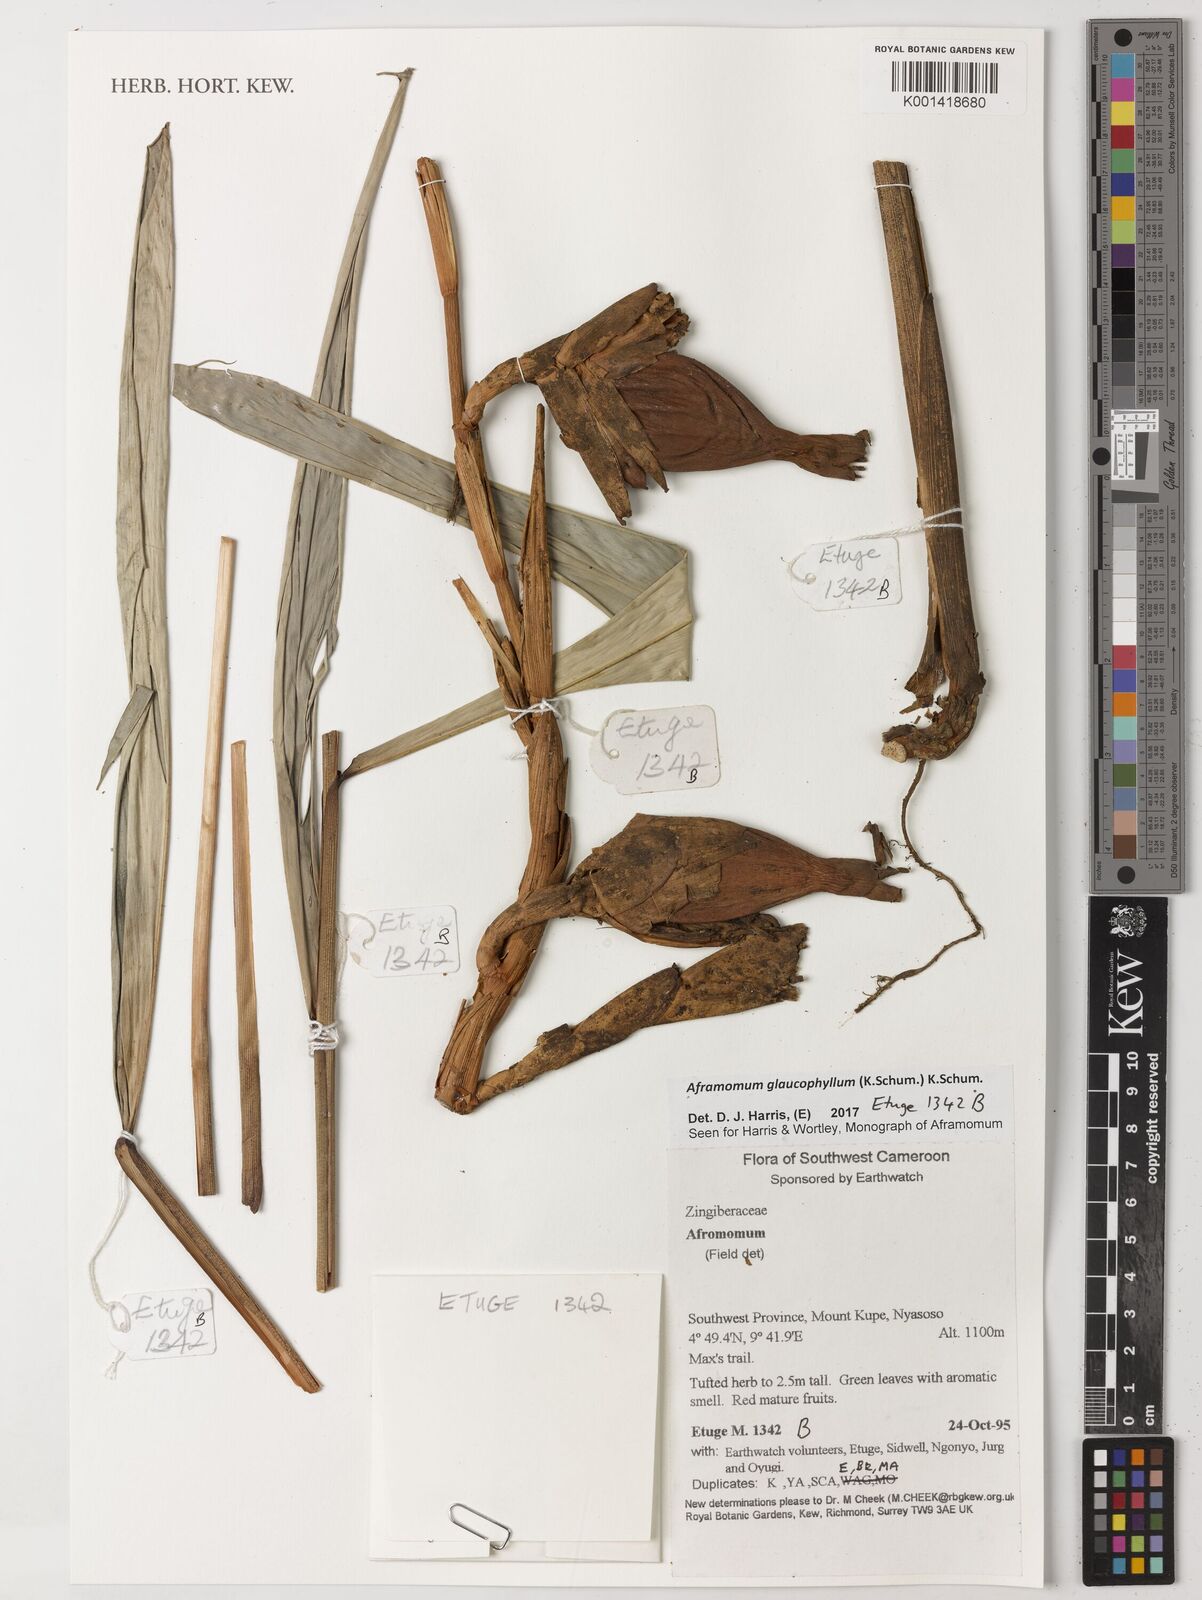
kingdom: Plantae
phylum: Tracheophyta
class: Liliopsida
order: Zingiberales
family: Zingiberaceae
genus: Aframomum
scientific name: Aframomum glaucophyllum
